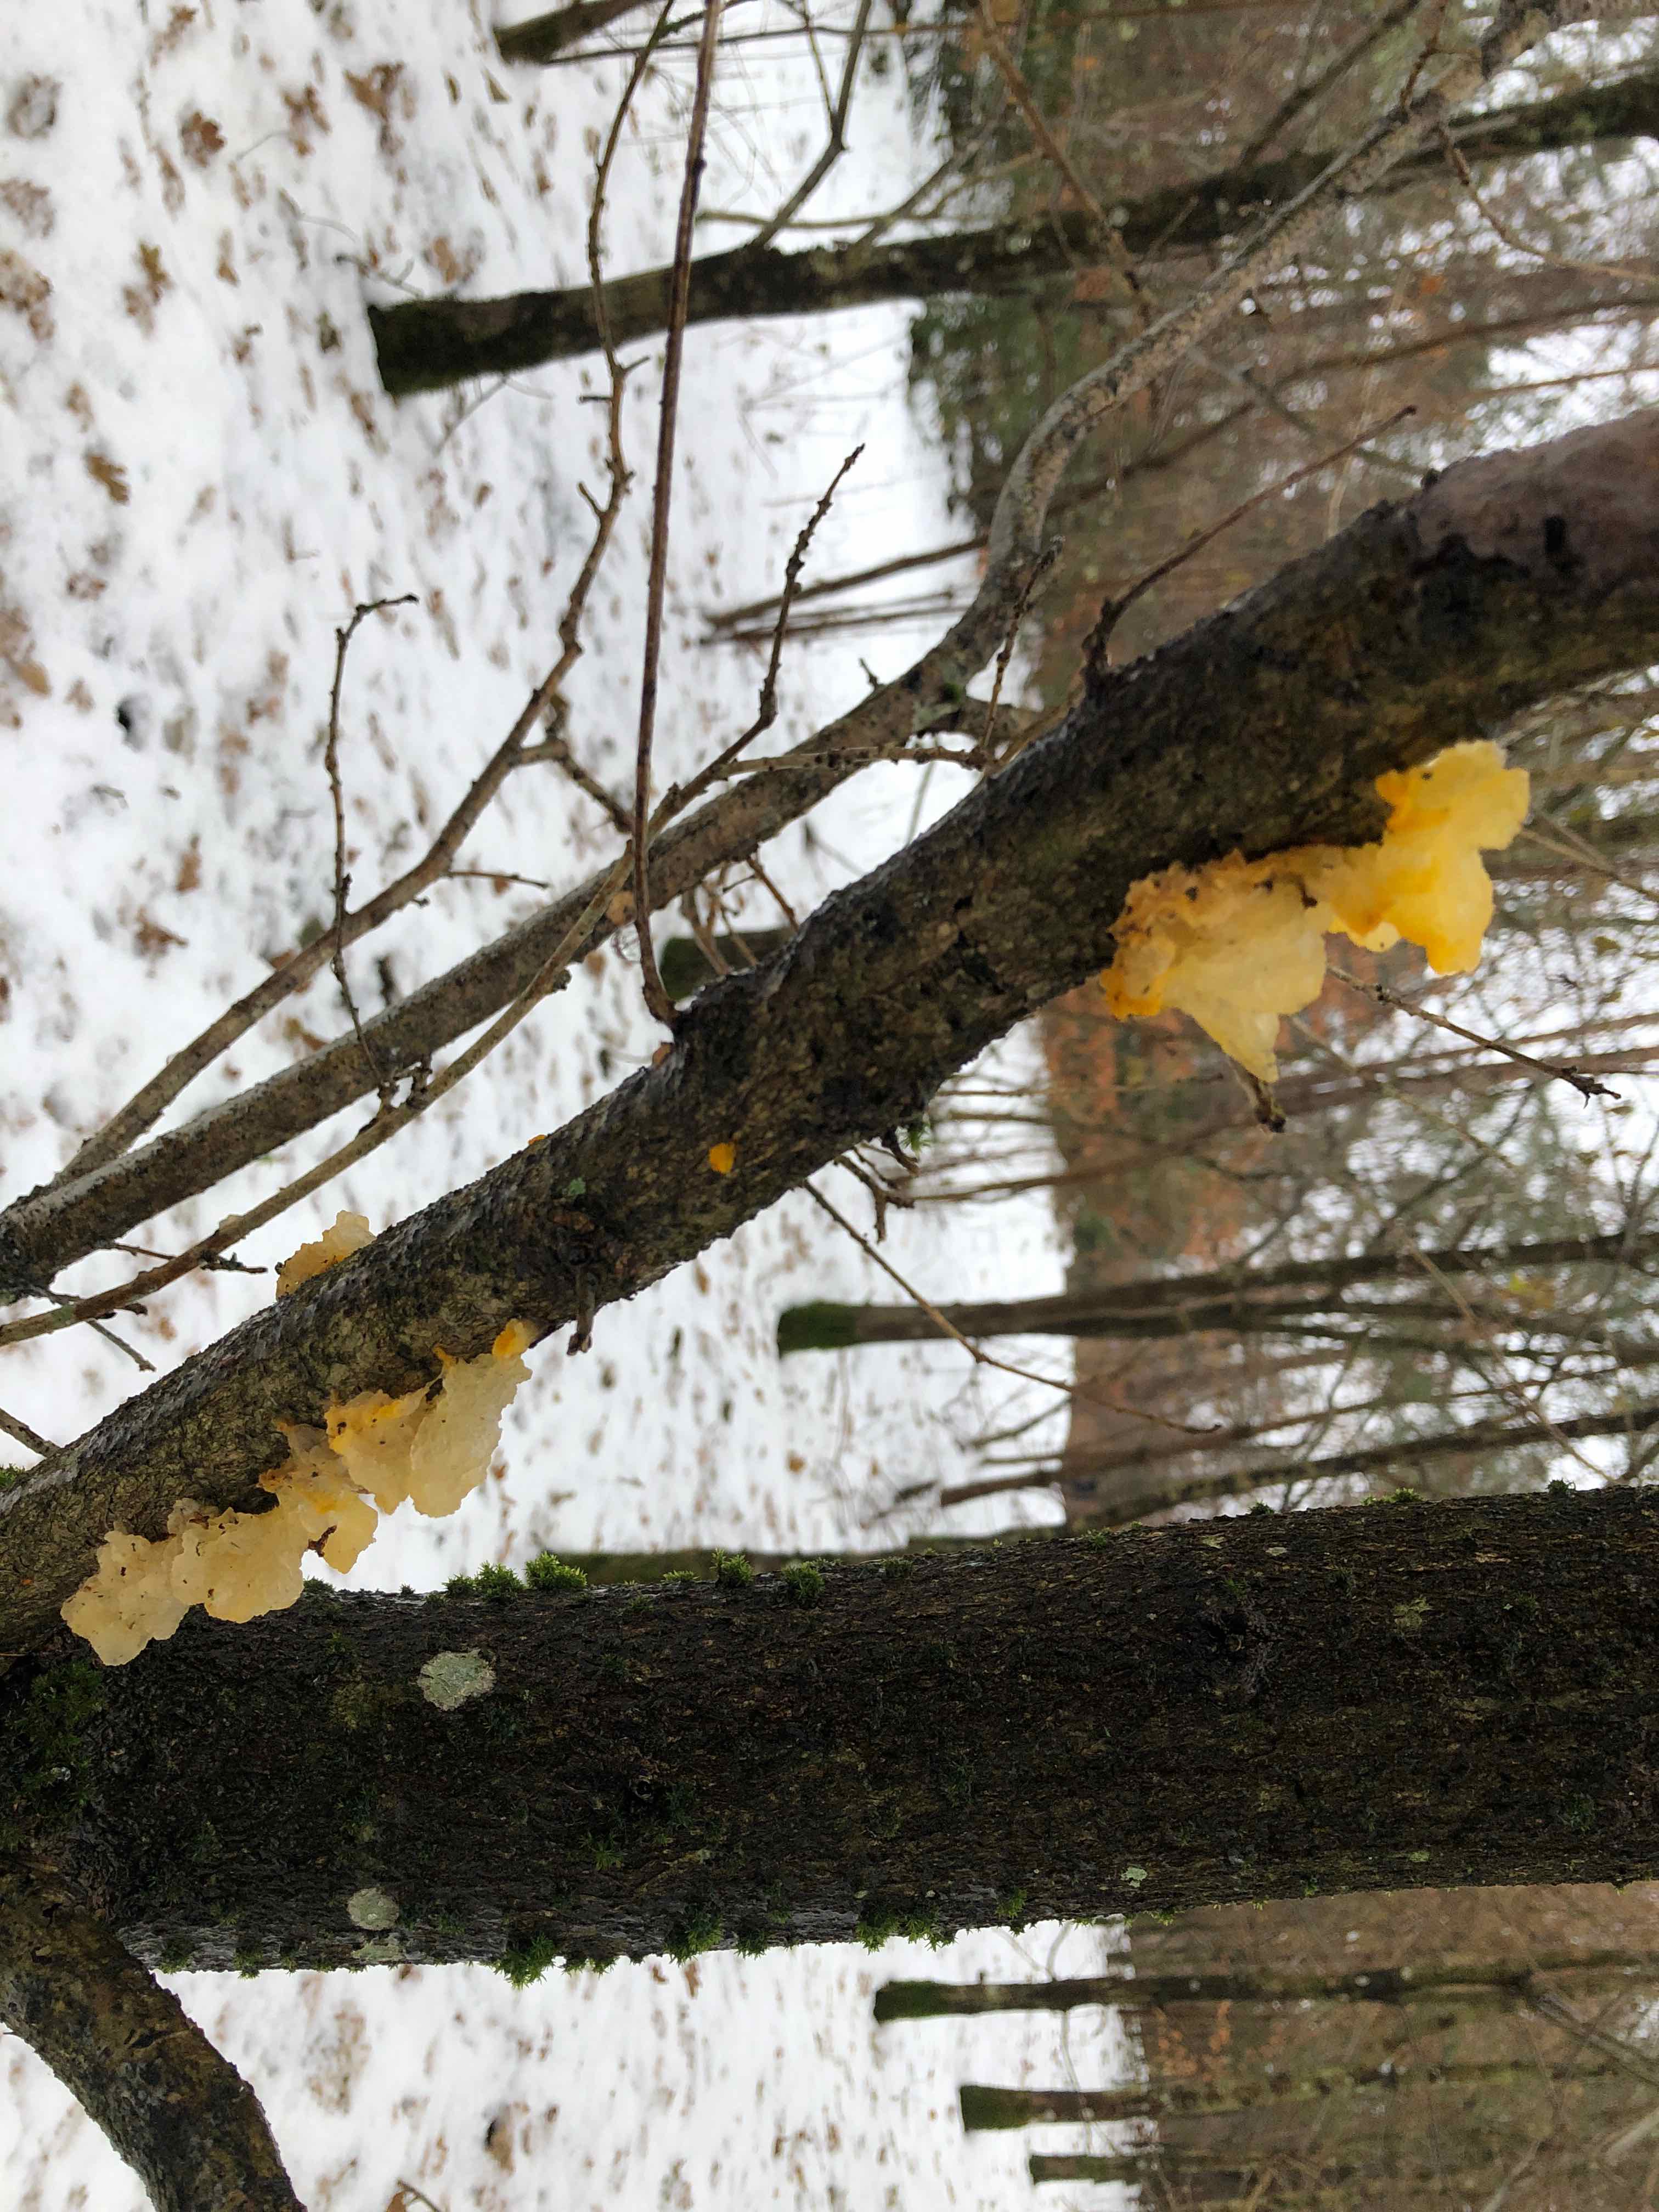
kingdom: Fungi
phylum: Basidiomycota
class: Tremellomycetes
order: Tremellales
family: Tremellaceae
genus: Tremella
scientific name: Tremella mesenterica
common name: gul bævresvamp
